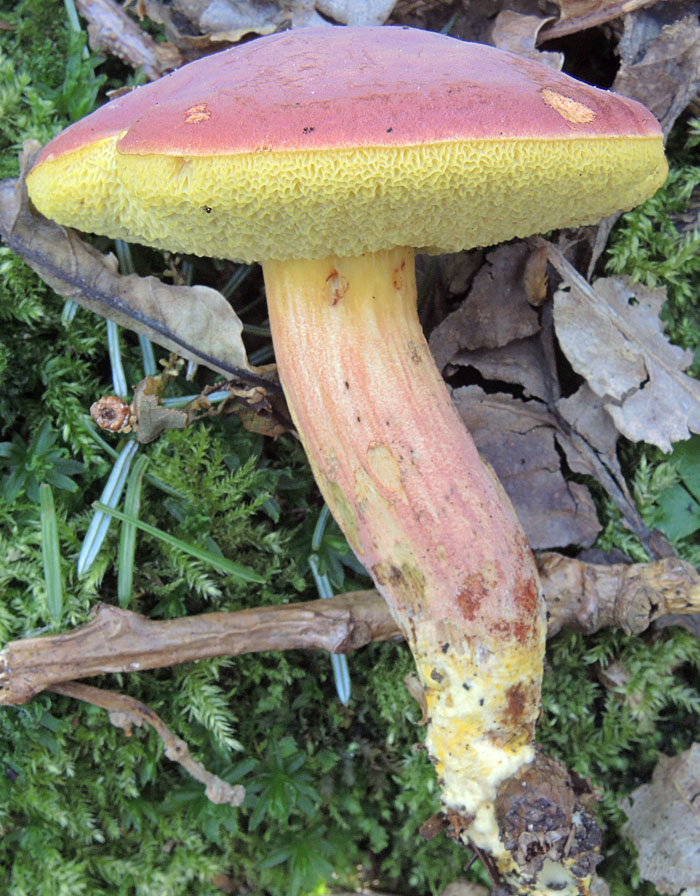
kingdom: Fungi
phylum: Basidiomycota
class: Agaricomycetes
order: Boletales
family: Boletaceae
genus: Hortiboletus
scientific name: Hortiboletus rubellus
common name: blodrød rørhat
